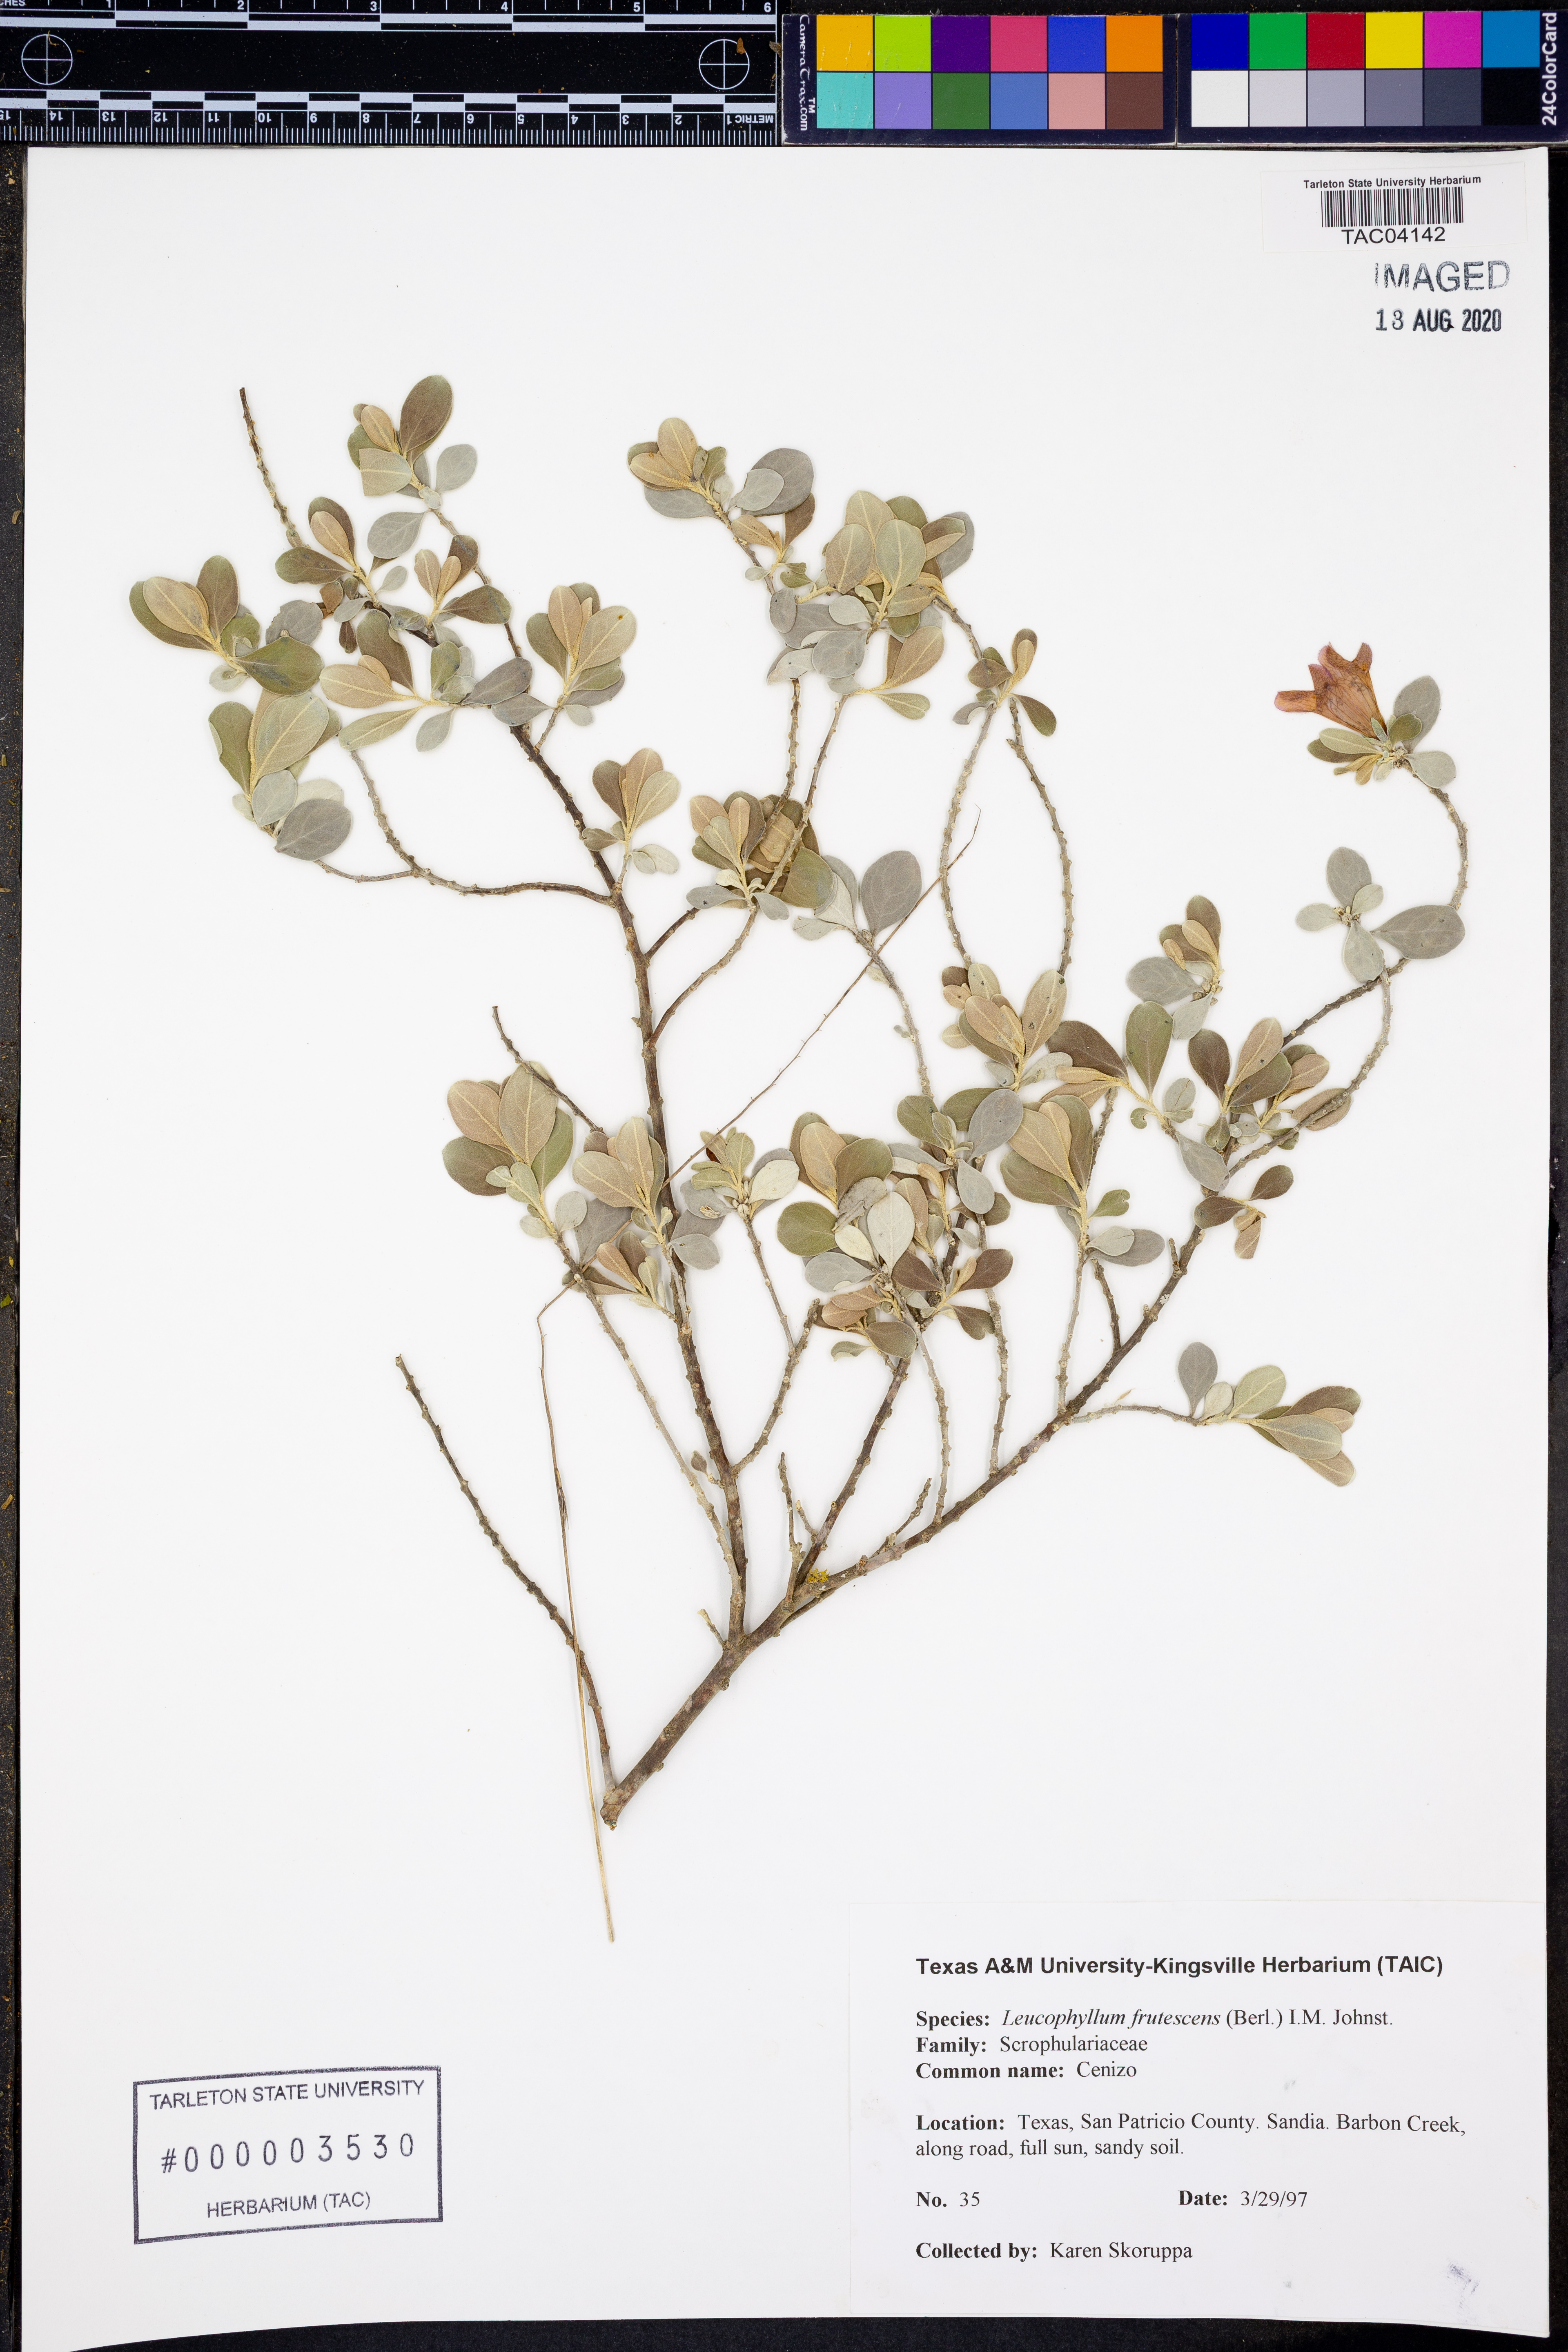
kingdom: Plantae
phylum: Tracheophyta
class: Magnoliopsida
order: Lamiales
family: Scrophulariaceae
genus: Leucophyllum
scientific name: Leucophyllum frutescens
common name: Texas silverleaf
